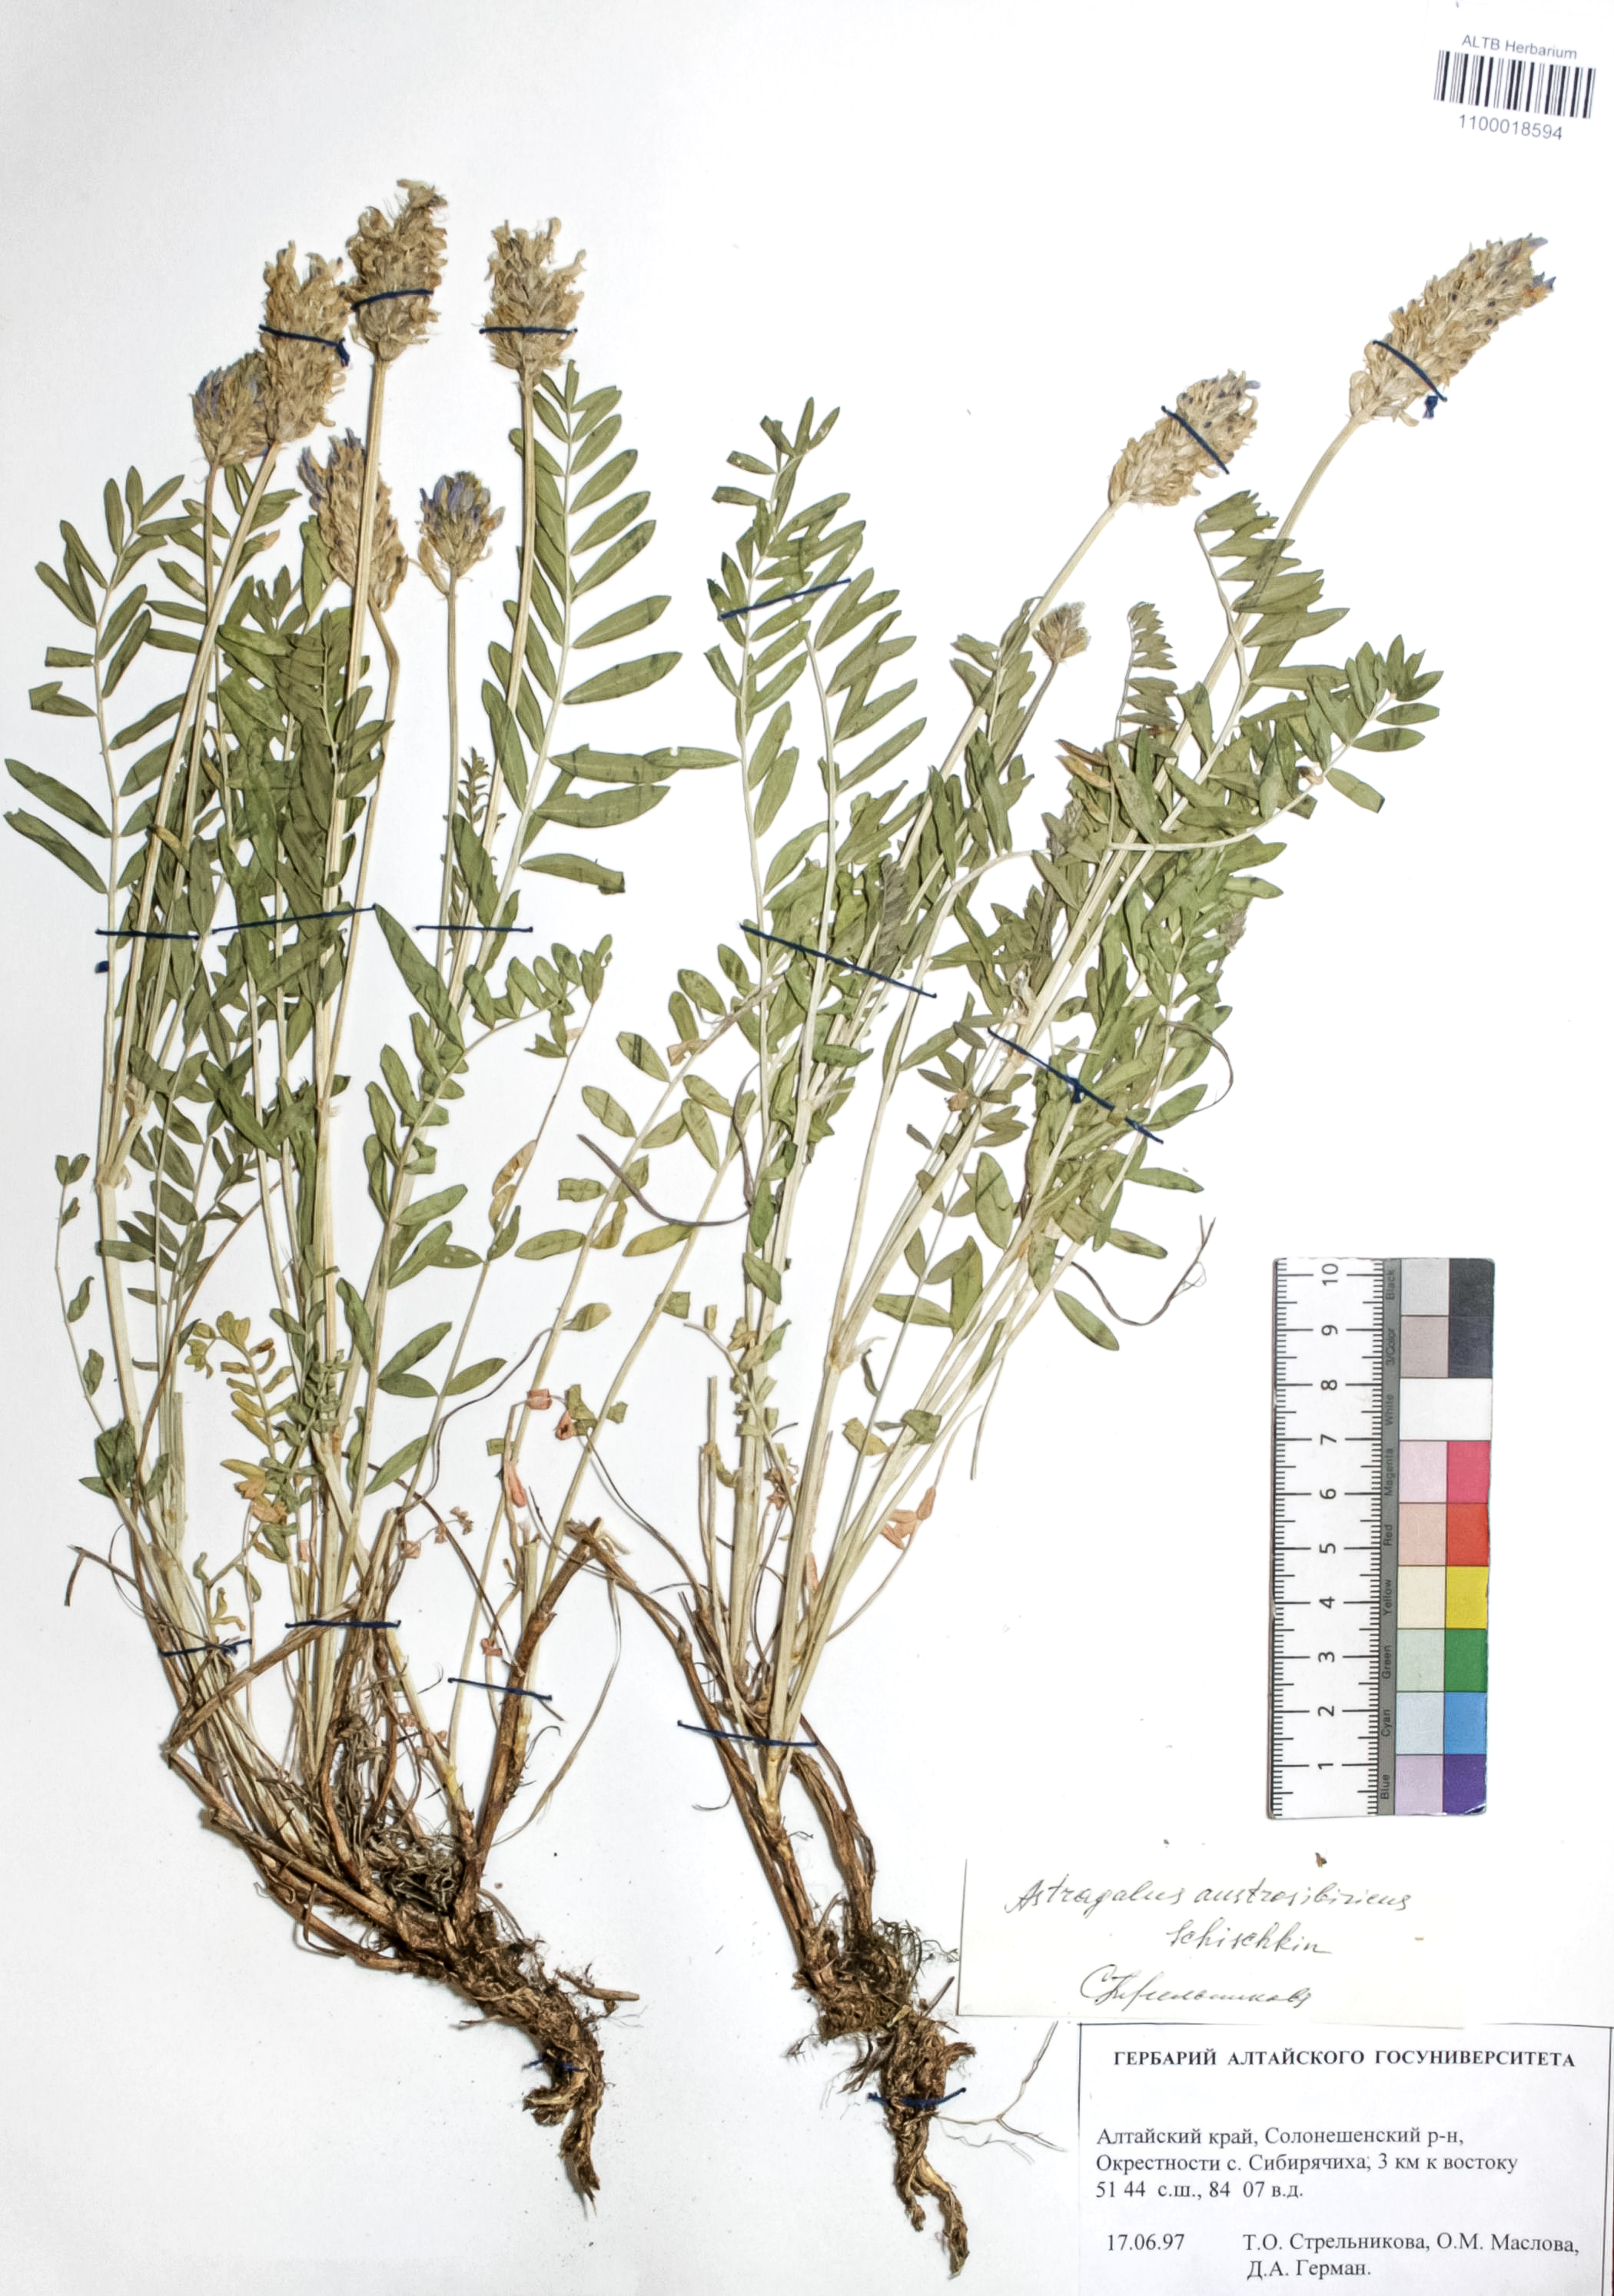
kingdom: Plantae
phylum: Tracheophyta
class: Magnoliopsida
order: Fabales
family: Fabaceae
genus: Astragalus
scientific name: Astragalus laxmannii
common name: Laxmann's milk-vetch
